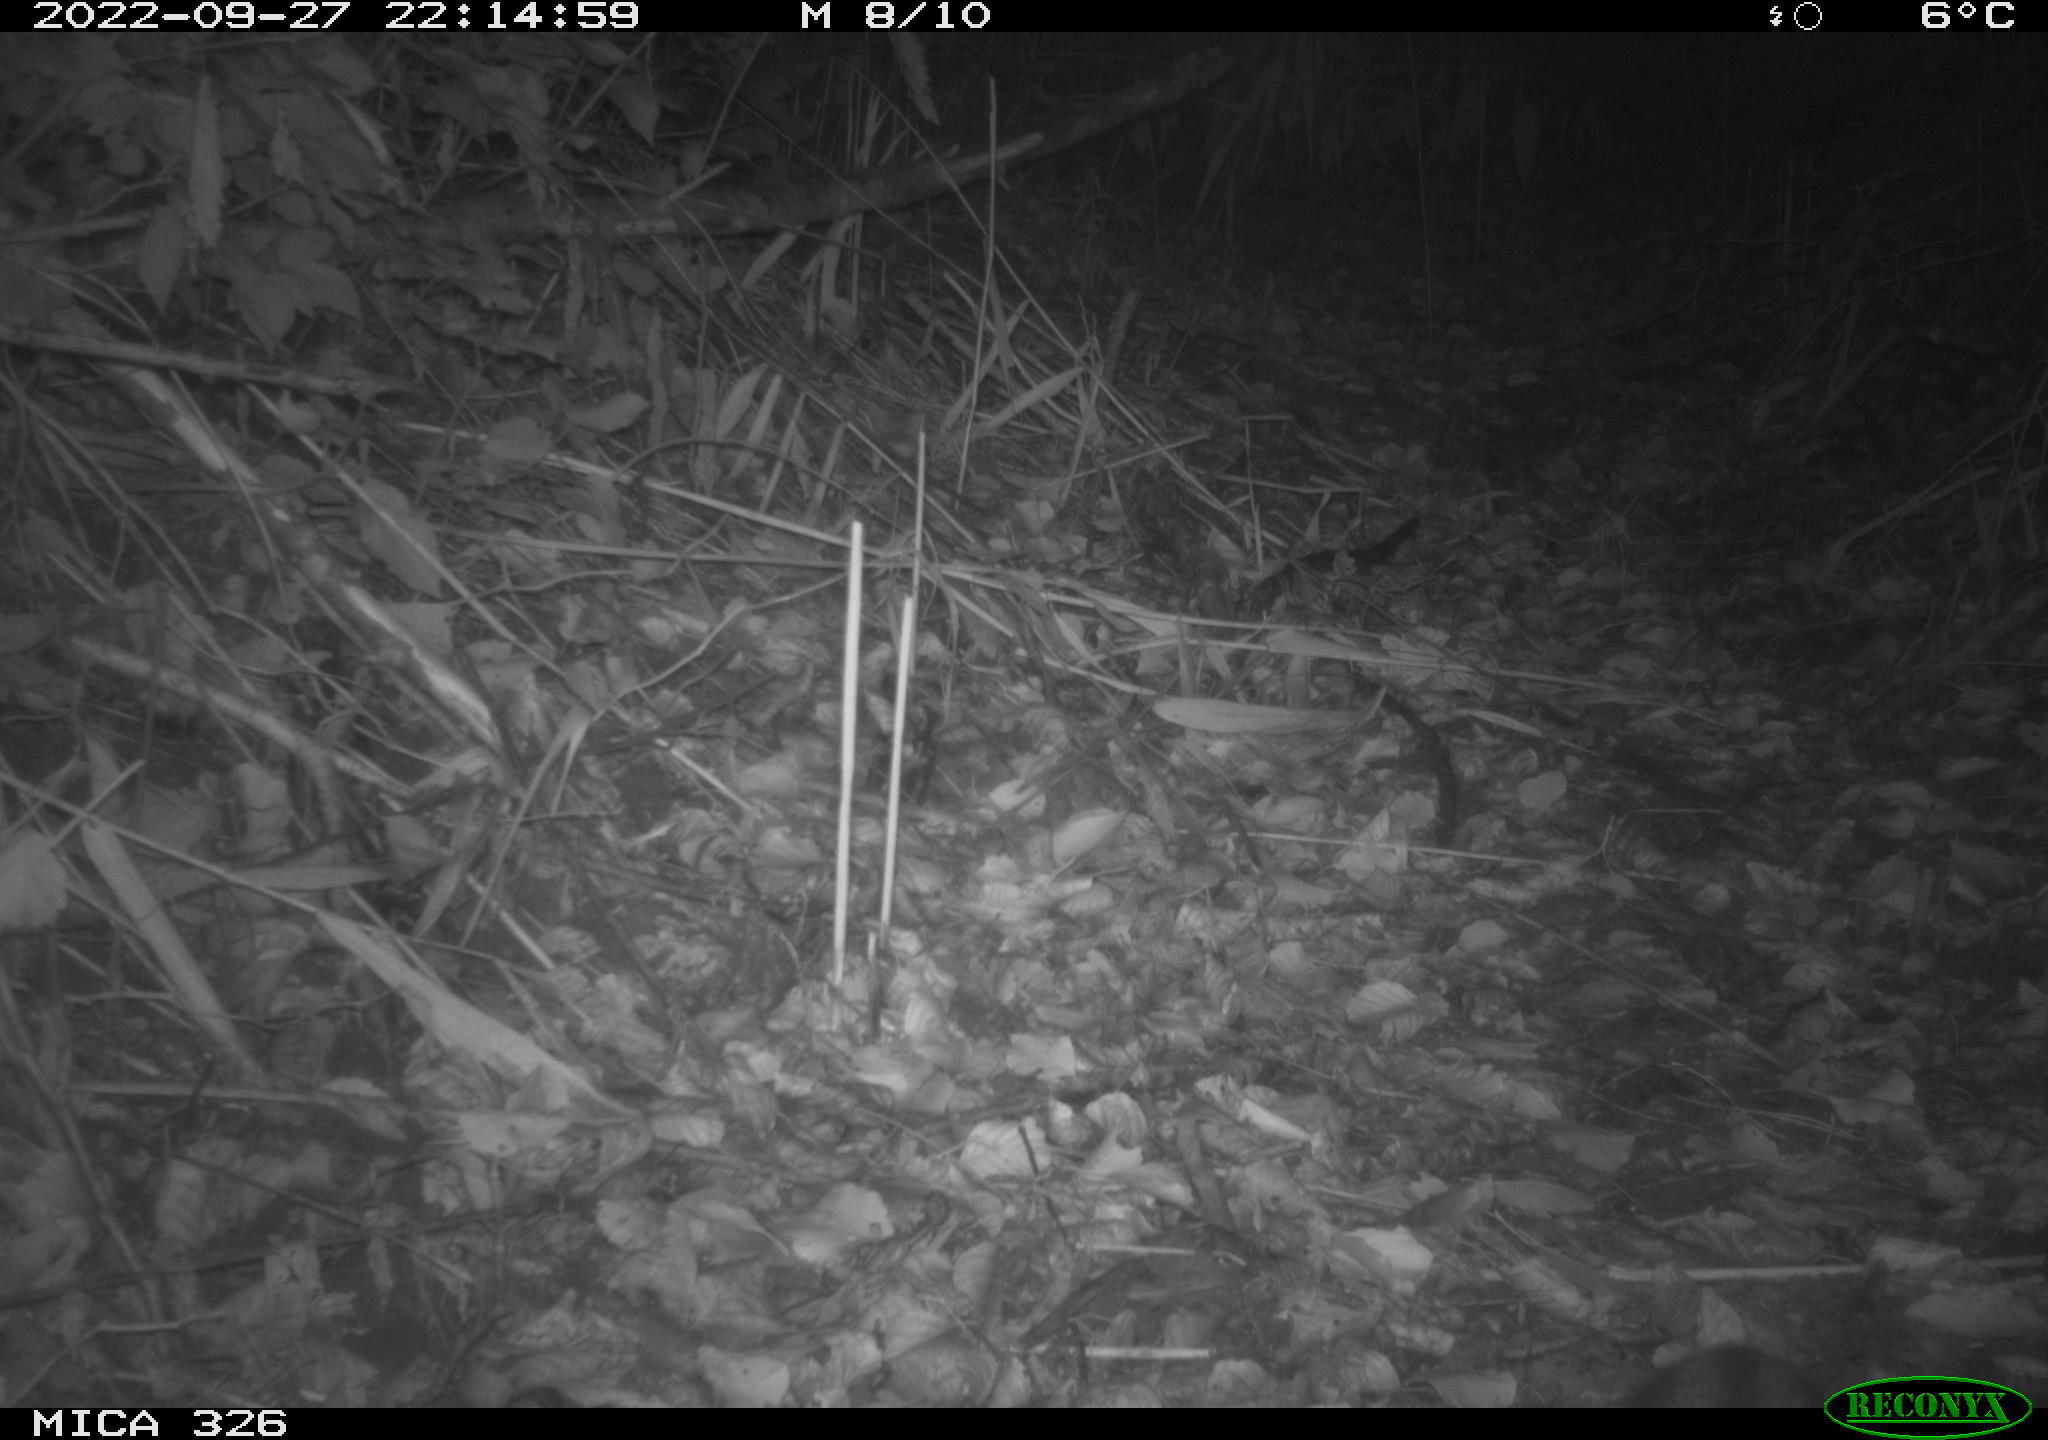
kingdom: Animalia
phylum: Chordata
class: Mammalia
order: Carnivora
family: Felidae
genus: Felis
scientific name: Felis catus
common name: Domestic cat
